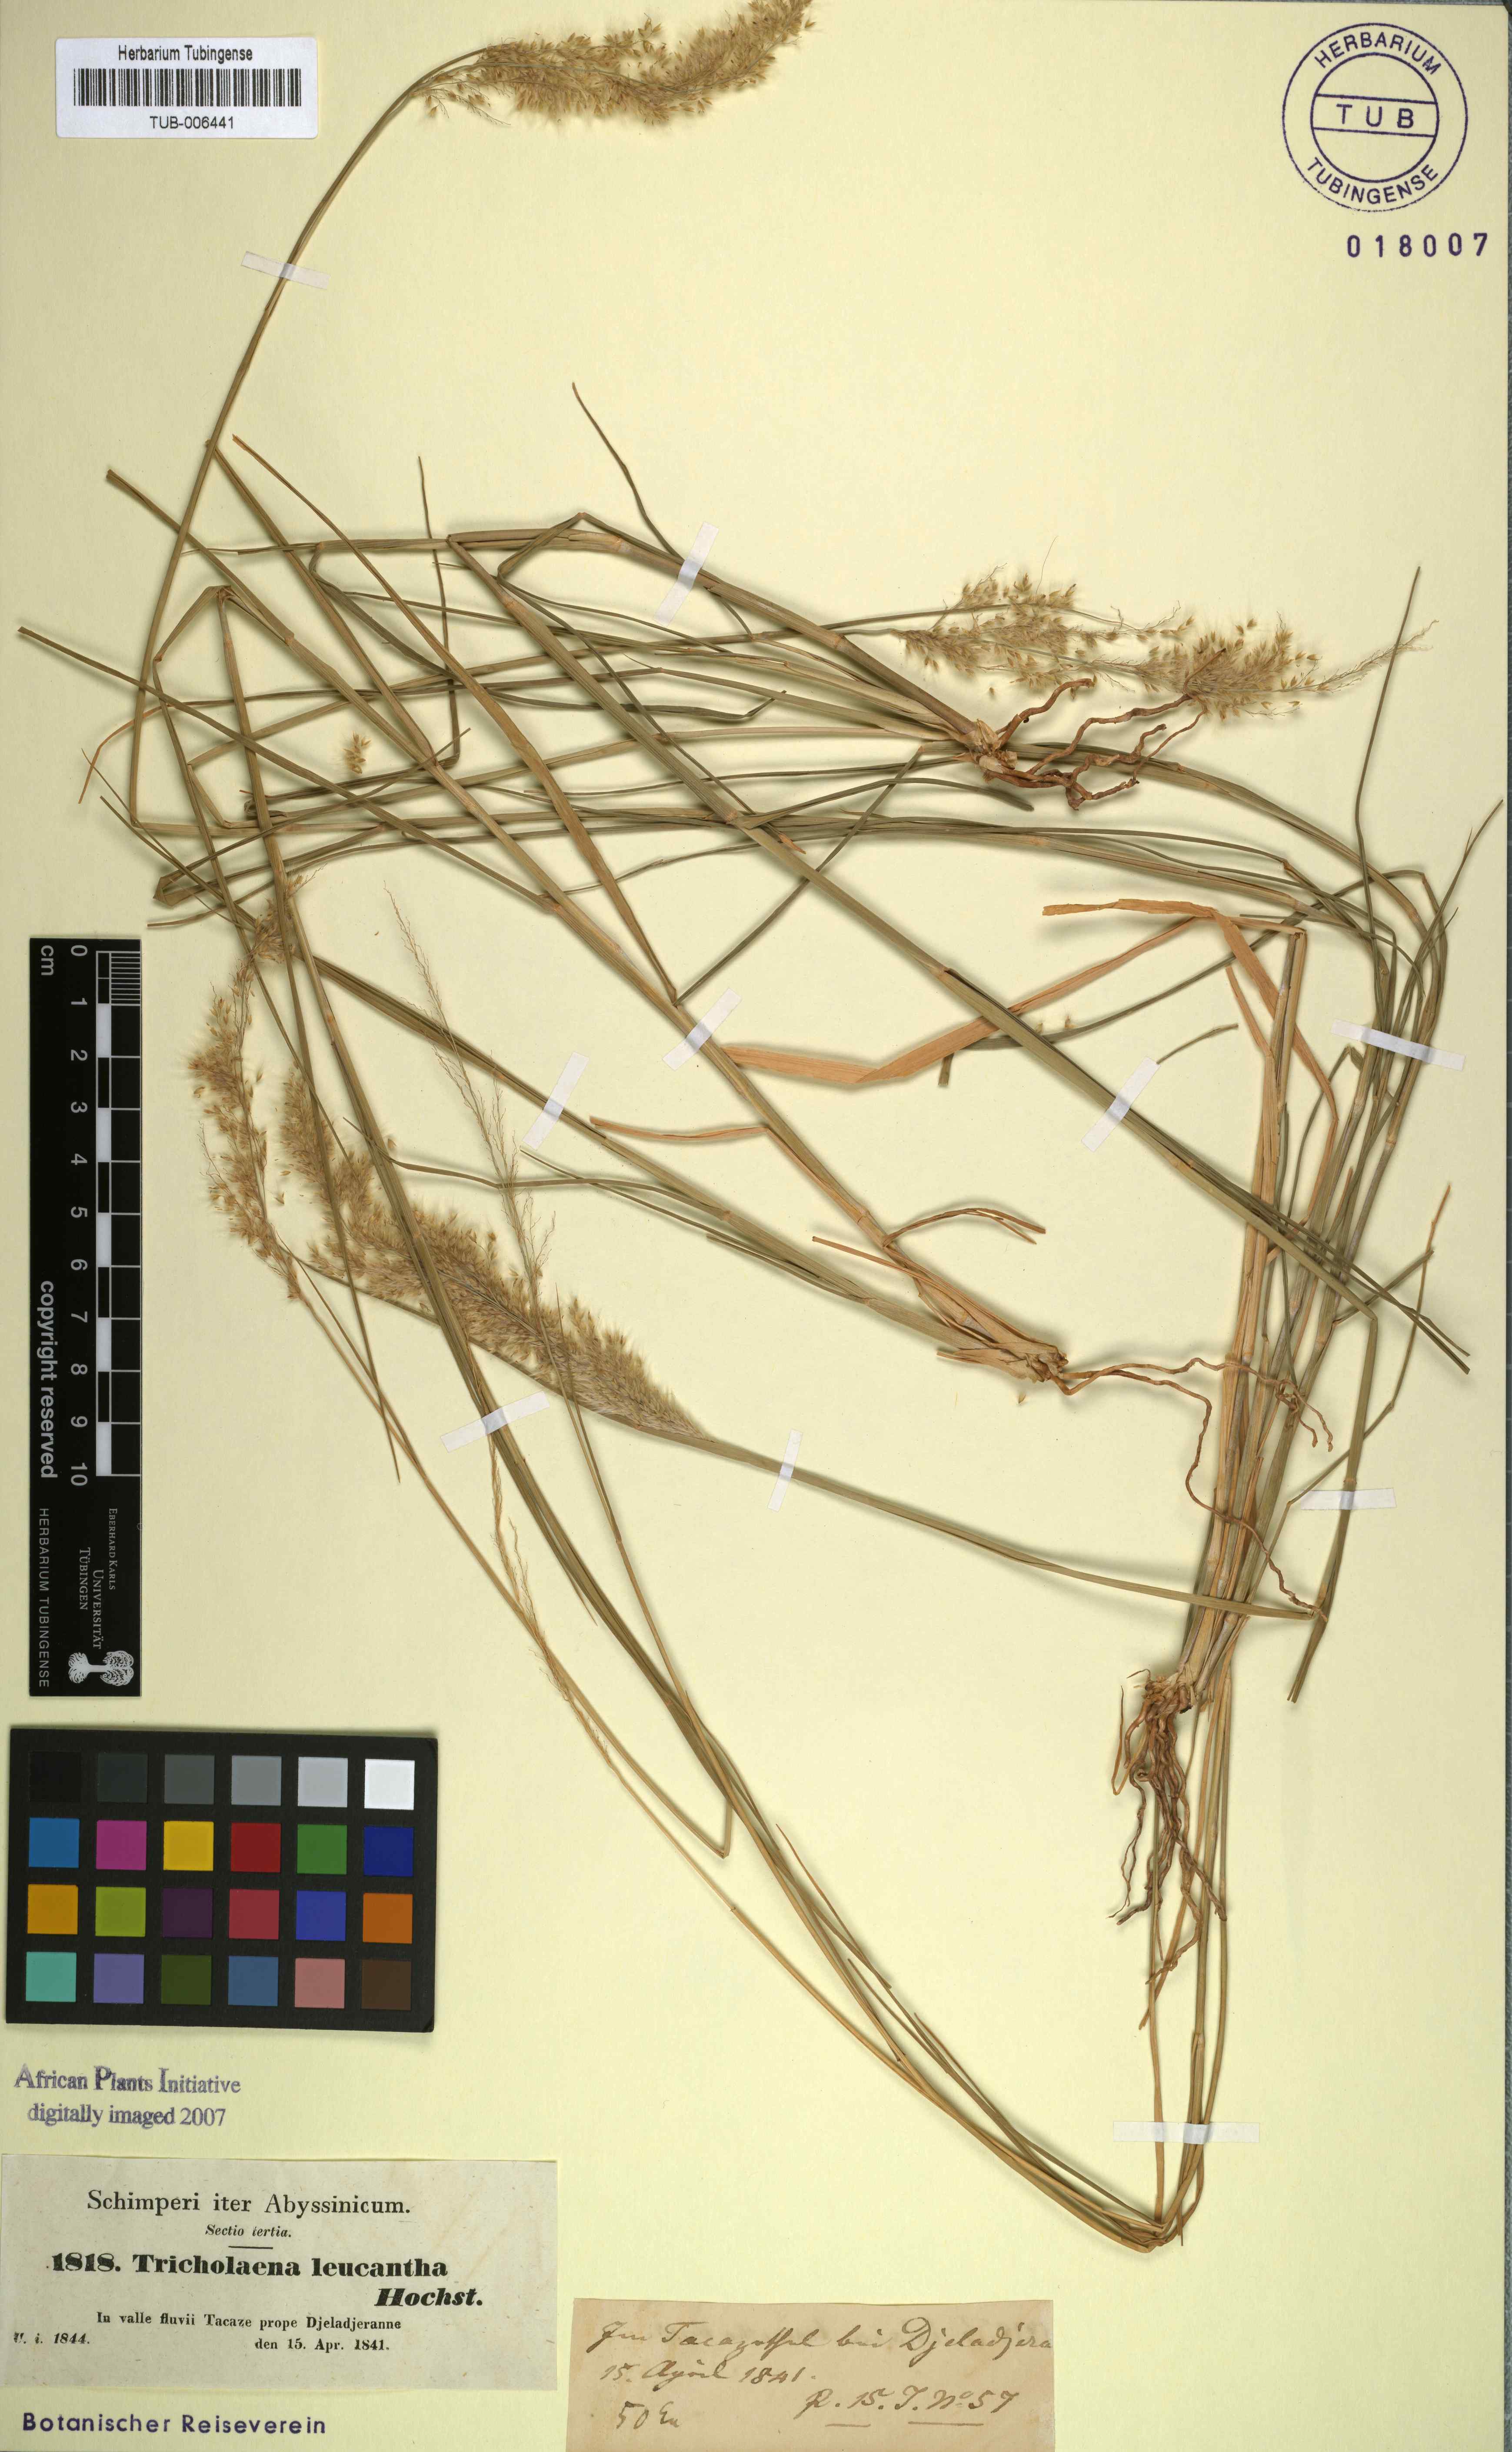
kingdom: Plantae
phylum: Tracheophyta
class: Liliopsida
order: Poales
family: Poaceae
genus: Tricholaena
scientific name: Tricholaena teneriffae
